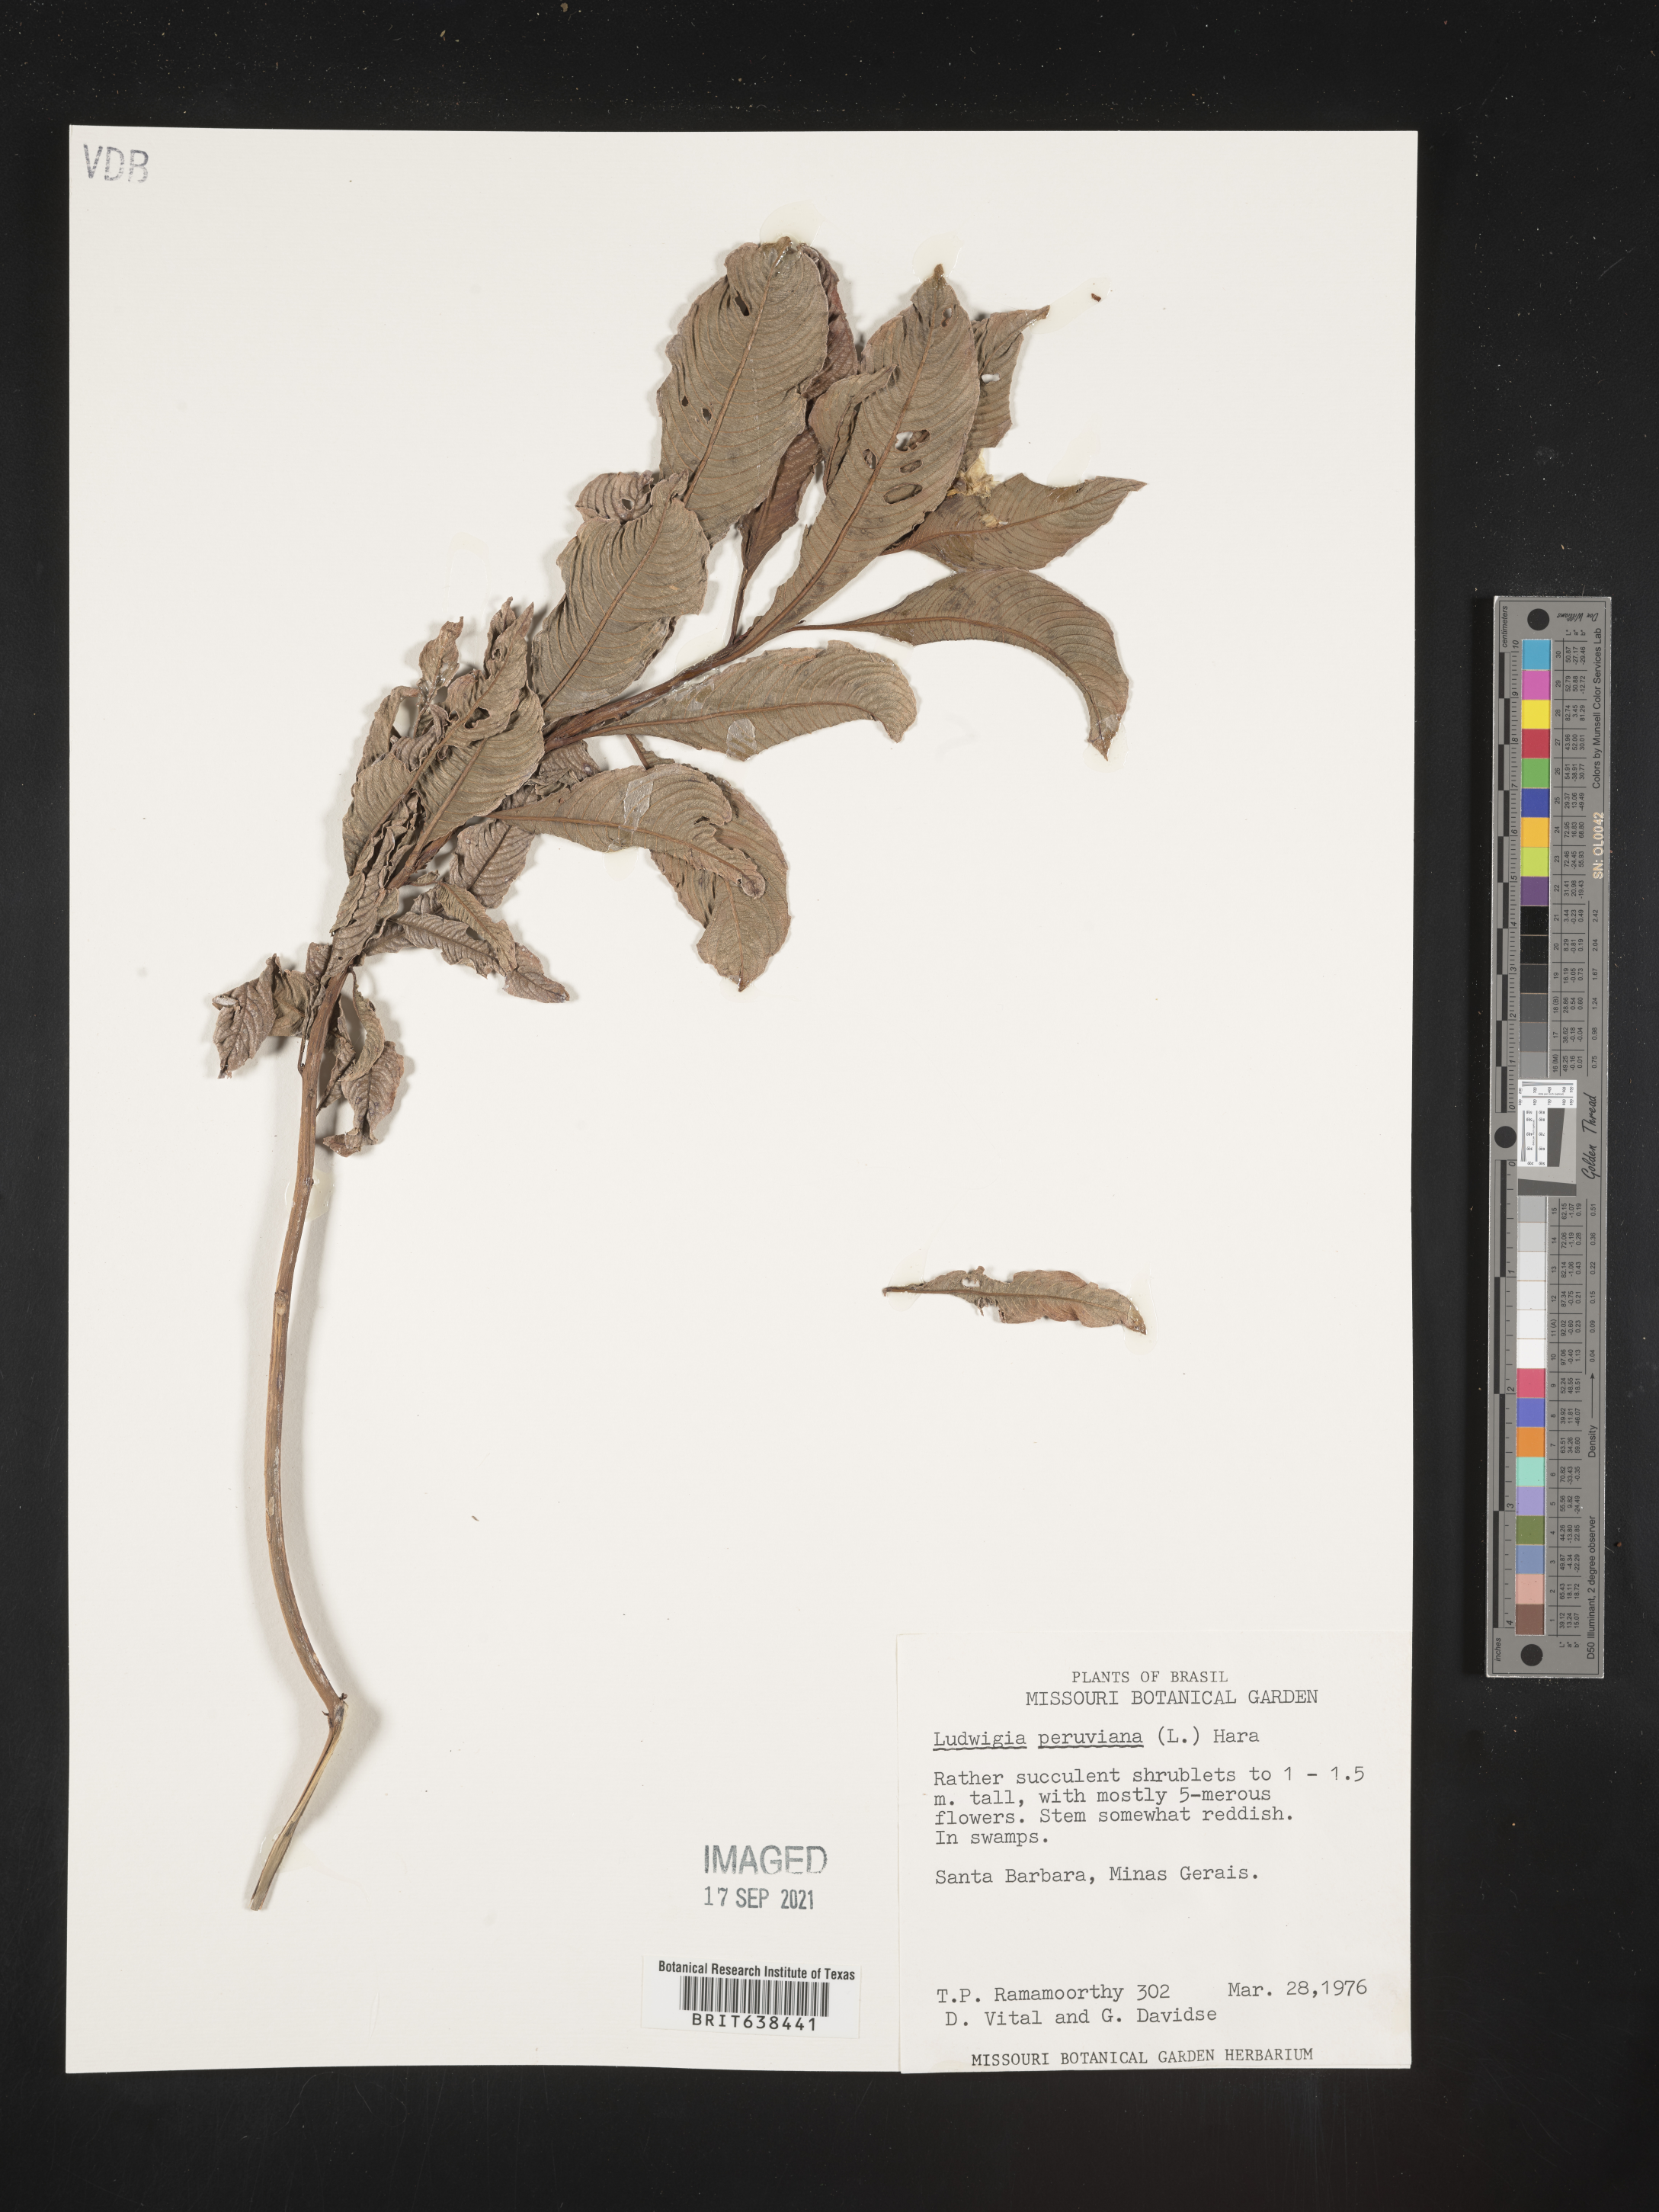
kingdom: Plantae
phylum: Tracheophyta
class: Magnoliopsida
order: Myrtales
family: Onagraceae
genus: Ludwigia
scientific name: Ludwigia
